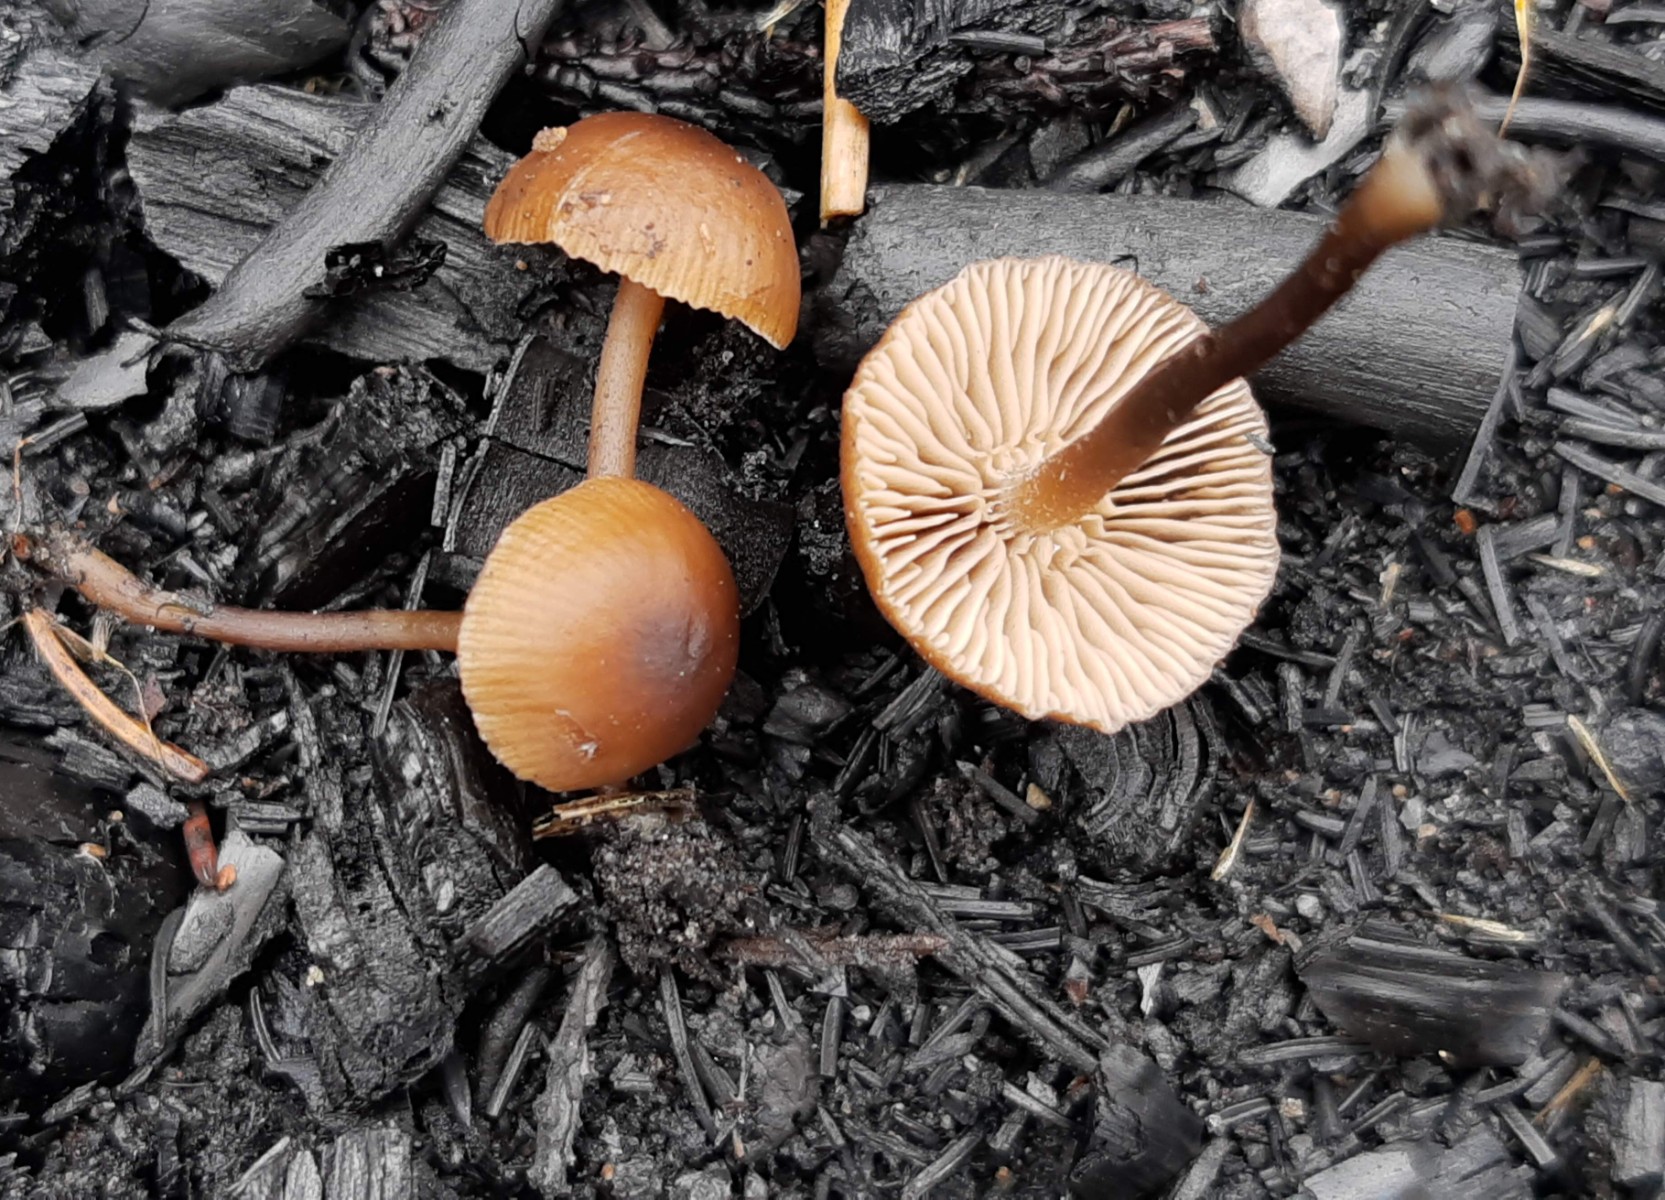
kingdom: Fungi
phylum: Basidiomycota
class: Agaricomycetes
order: Agaricales
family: Lyophyllaceae
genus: Tephrocybe
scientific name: Tephrocybe anthracophila
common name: svedje-gråblad
